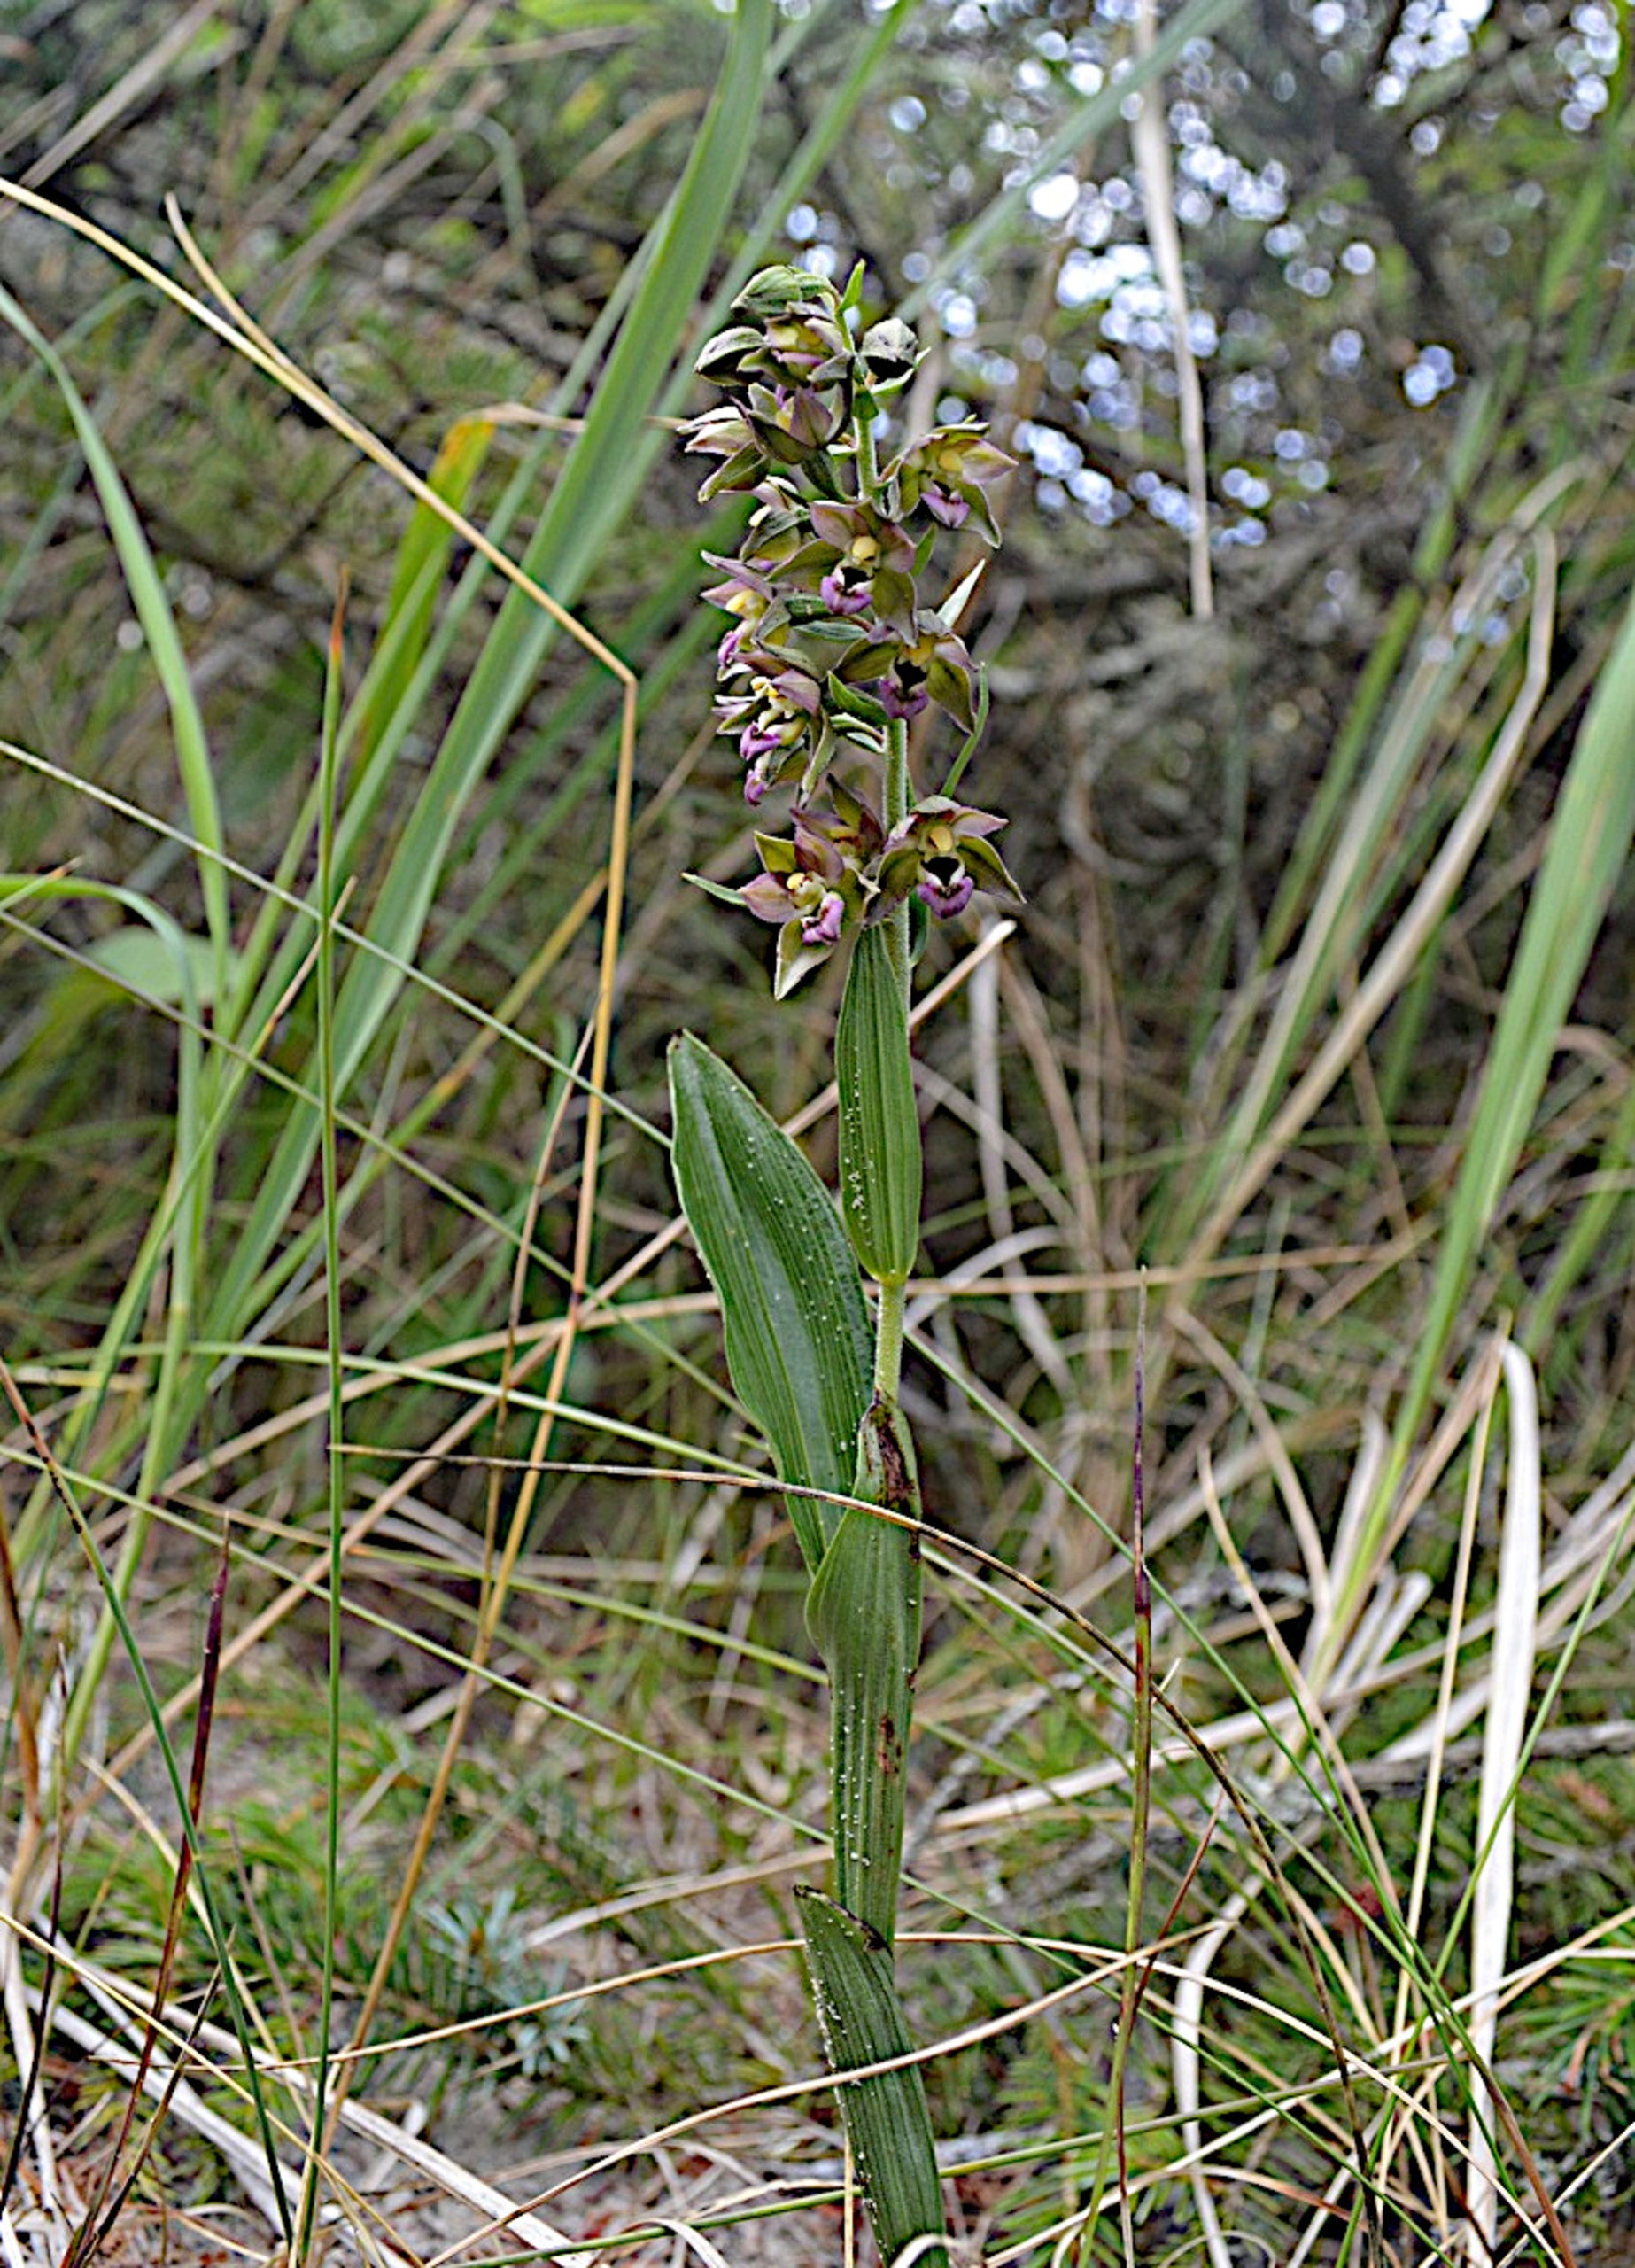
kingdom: Plantae
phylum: Tracheophyta
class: Liliopsida
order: Asparagales
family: Orchidaceae
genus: Epipactis
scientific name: Epipactis helleborine
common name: Hollandsk hullæbe
